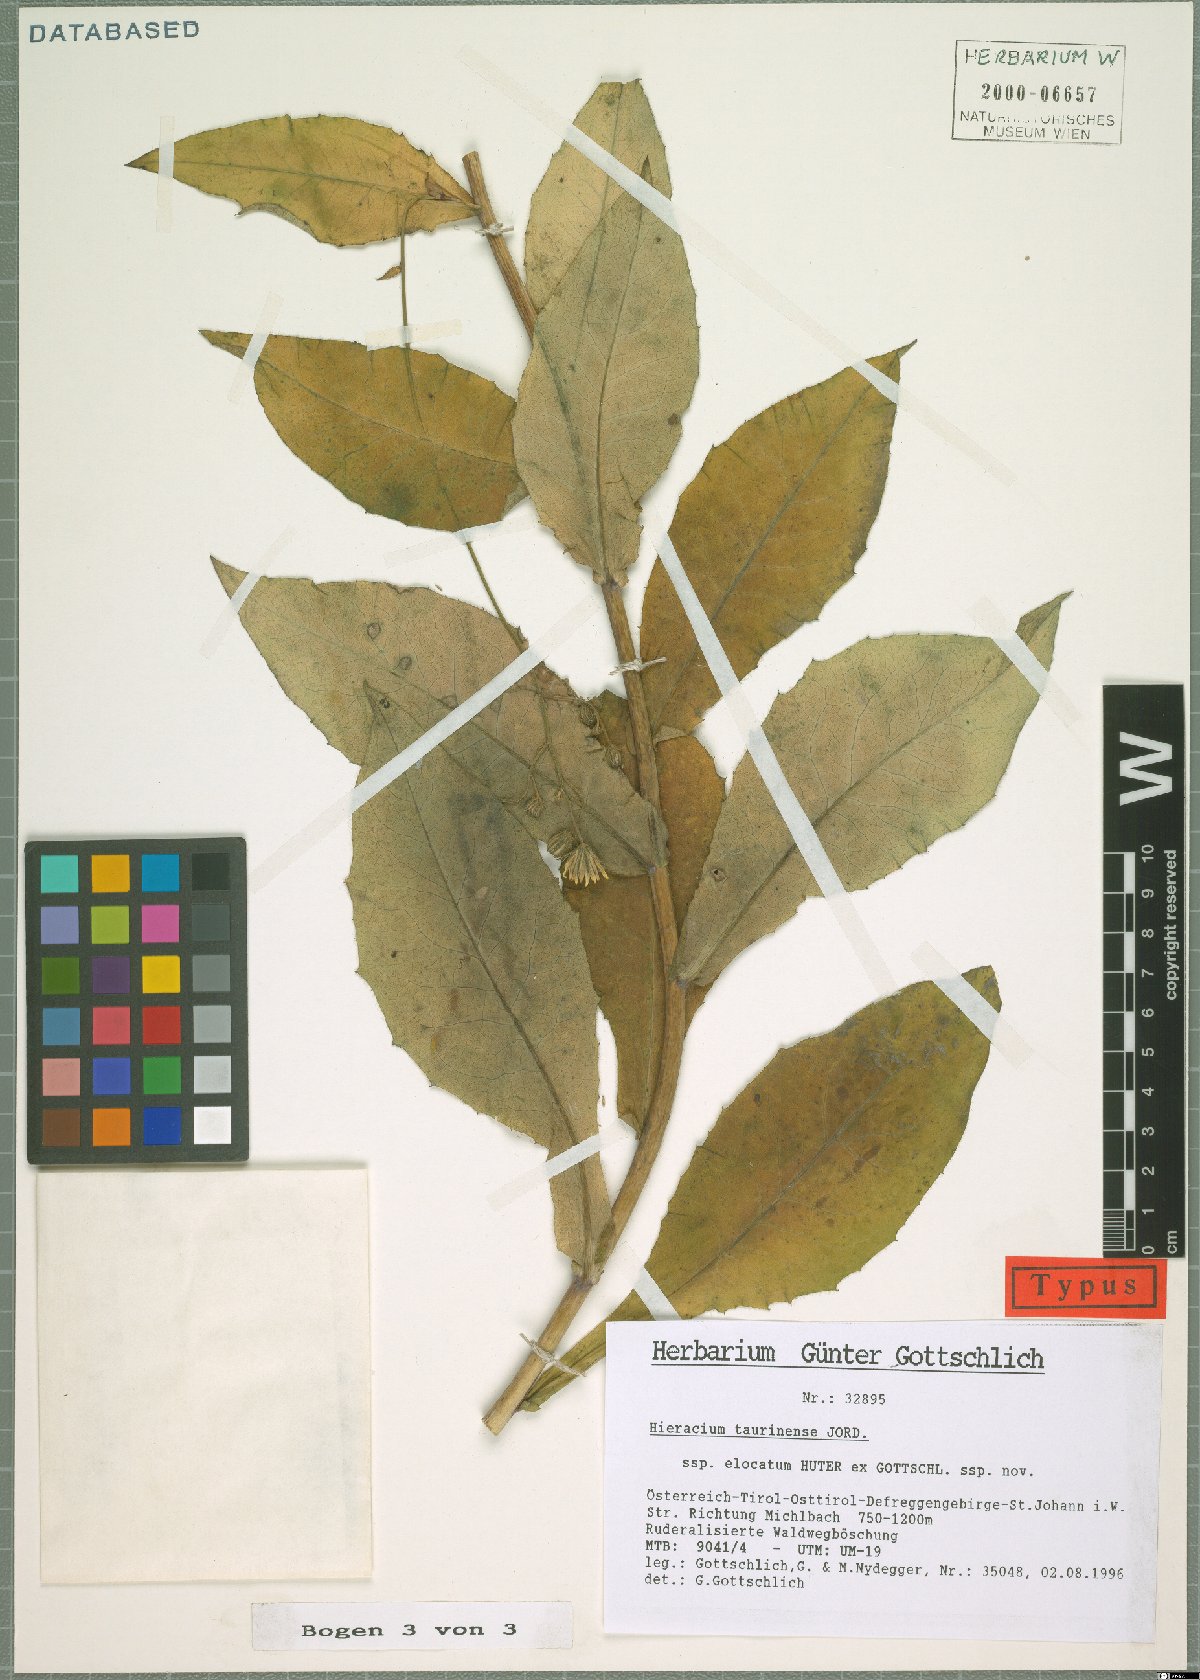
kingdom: Plantae
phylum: Tracheophyta
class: Magnoliopsida
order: Asterales
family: Asteraceae
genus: Hieracium
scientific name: Hieracium symphytaceum
